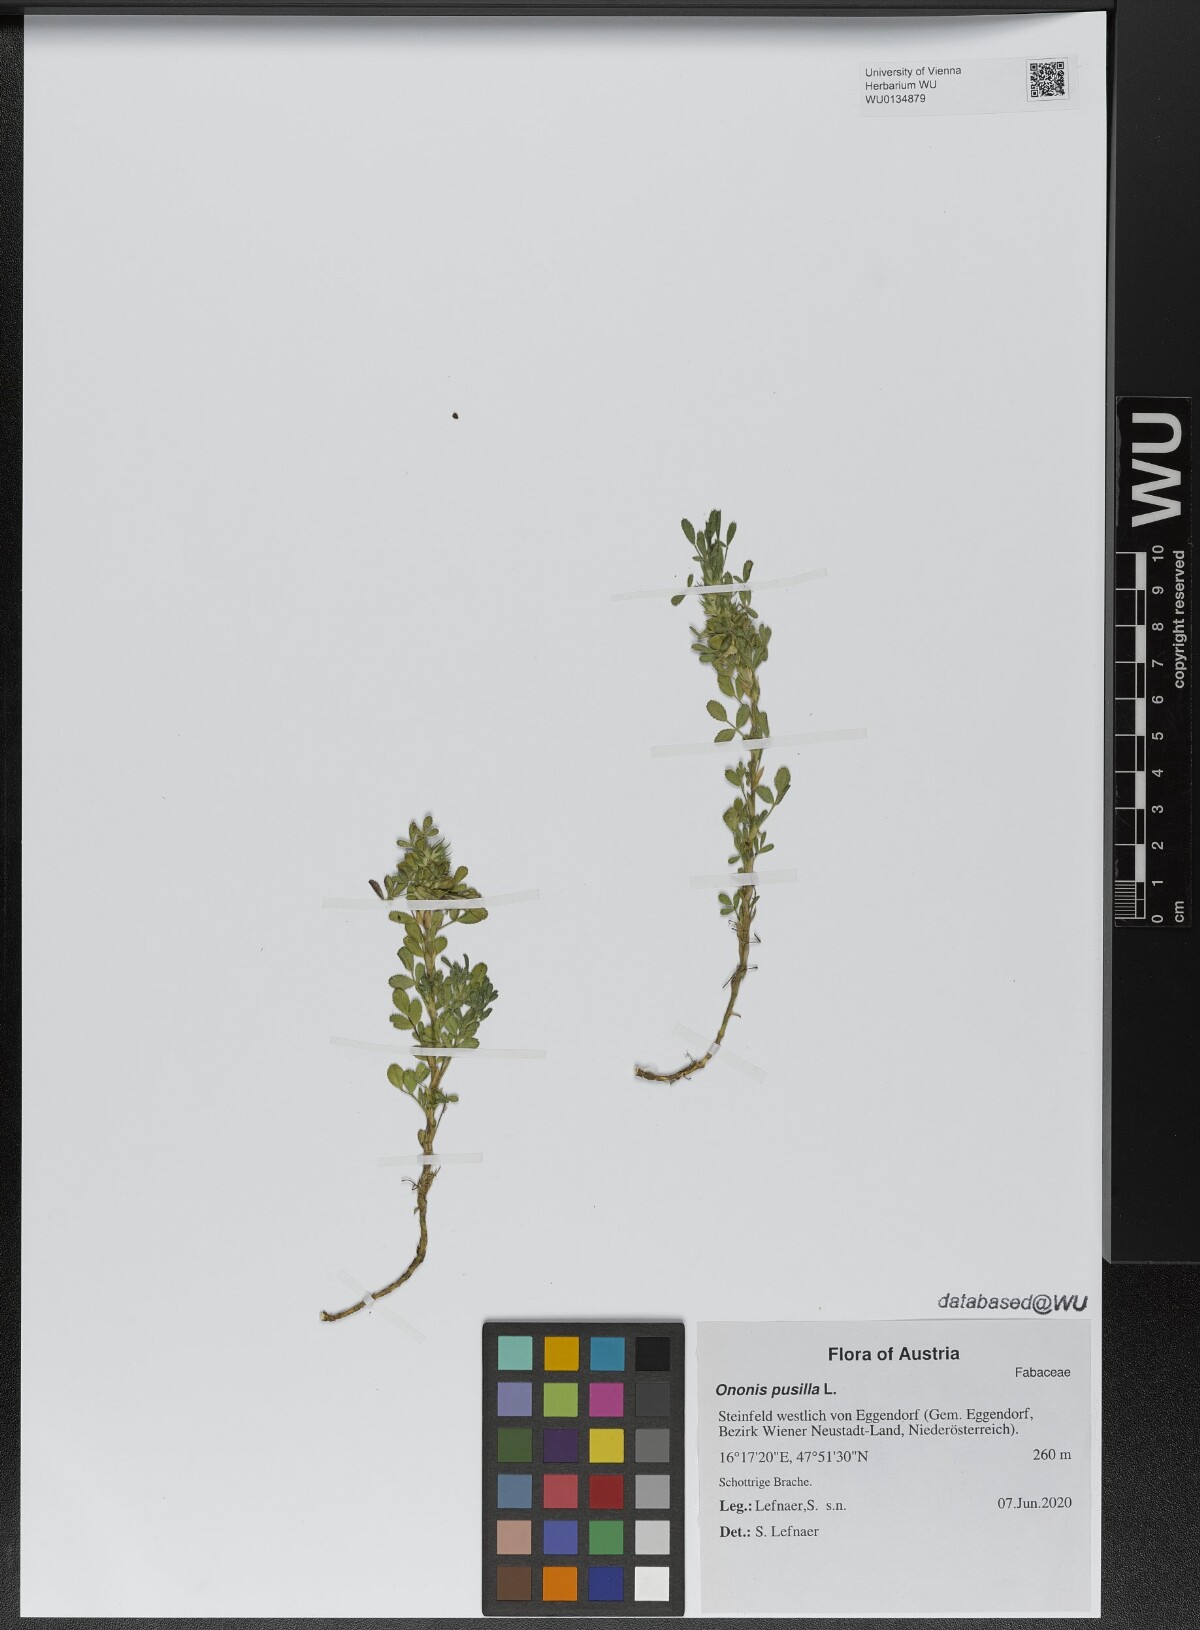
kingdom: Plantae
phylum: Tracheophyta
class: Magnoliopsida
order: Fabales
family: Fabaceae
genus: Ononis
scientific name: Ononis pusilla
